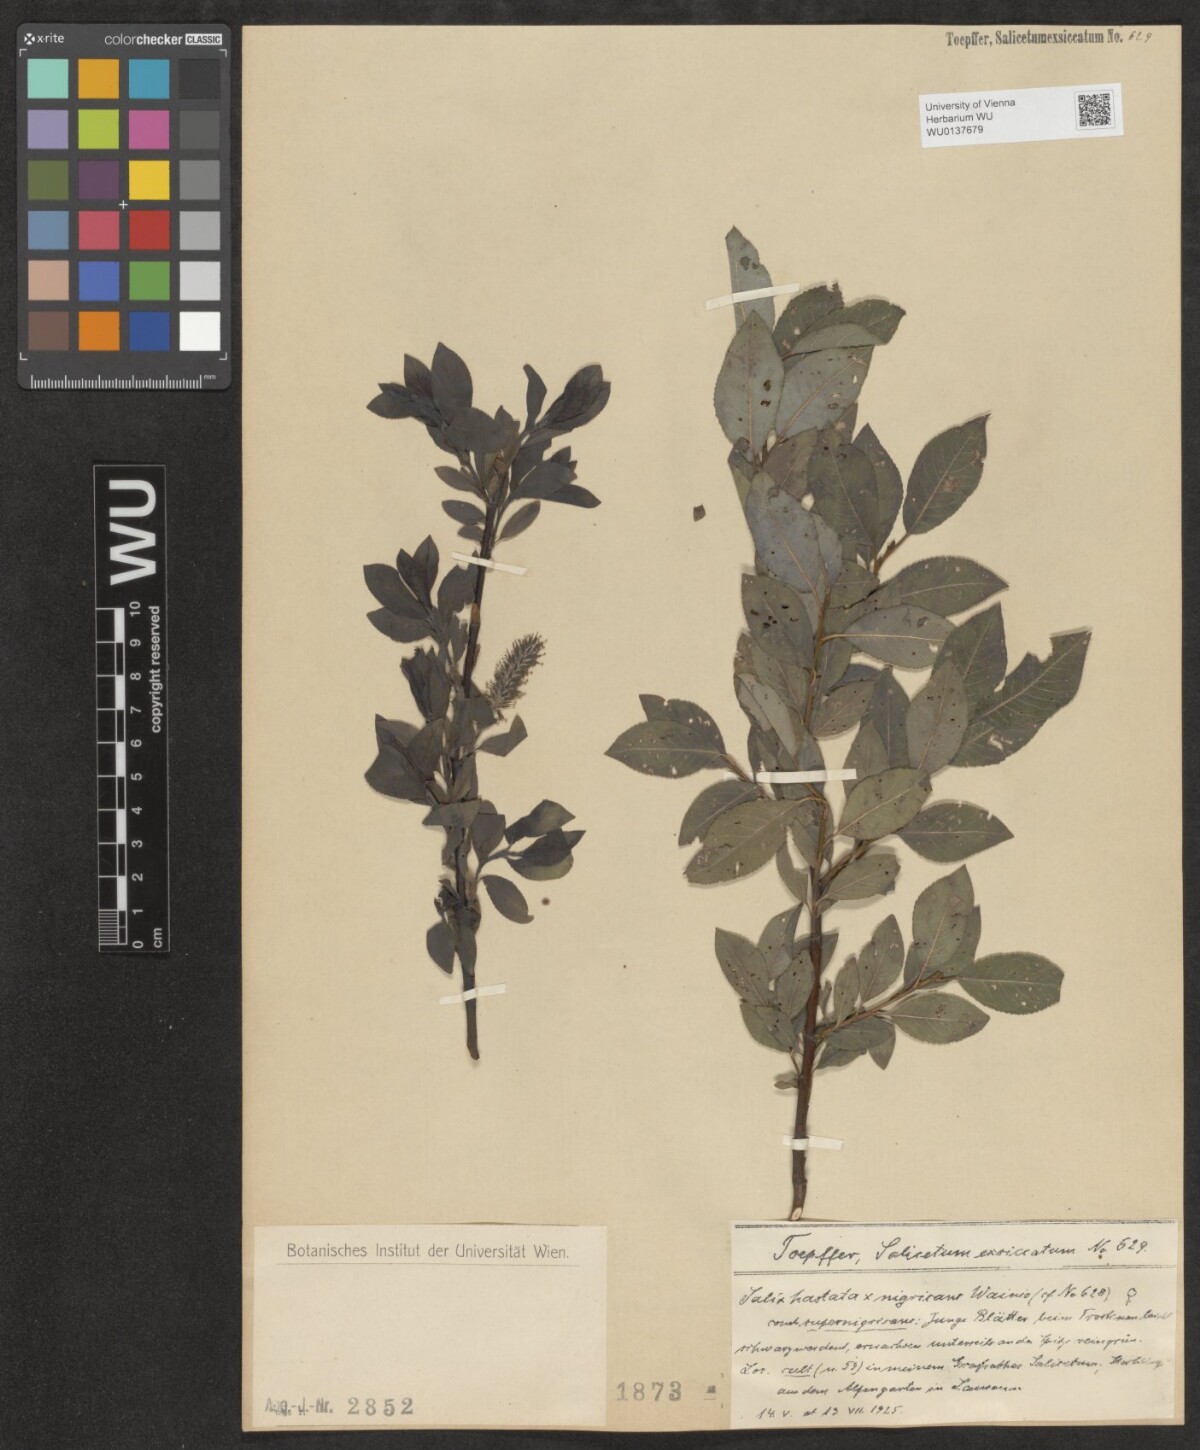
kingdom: Plantae
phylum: Tracheophyta
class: Magnoliopsida
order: Malpighiales
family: Salicaceae
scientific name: Salicaceae
